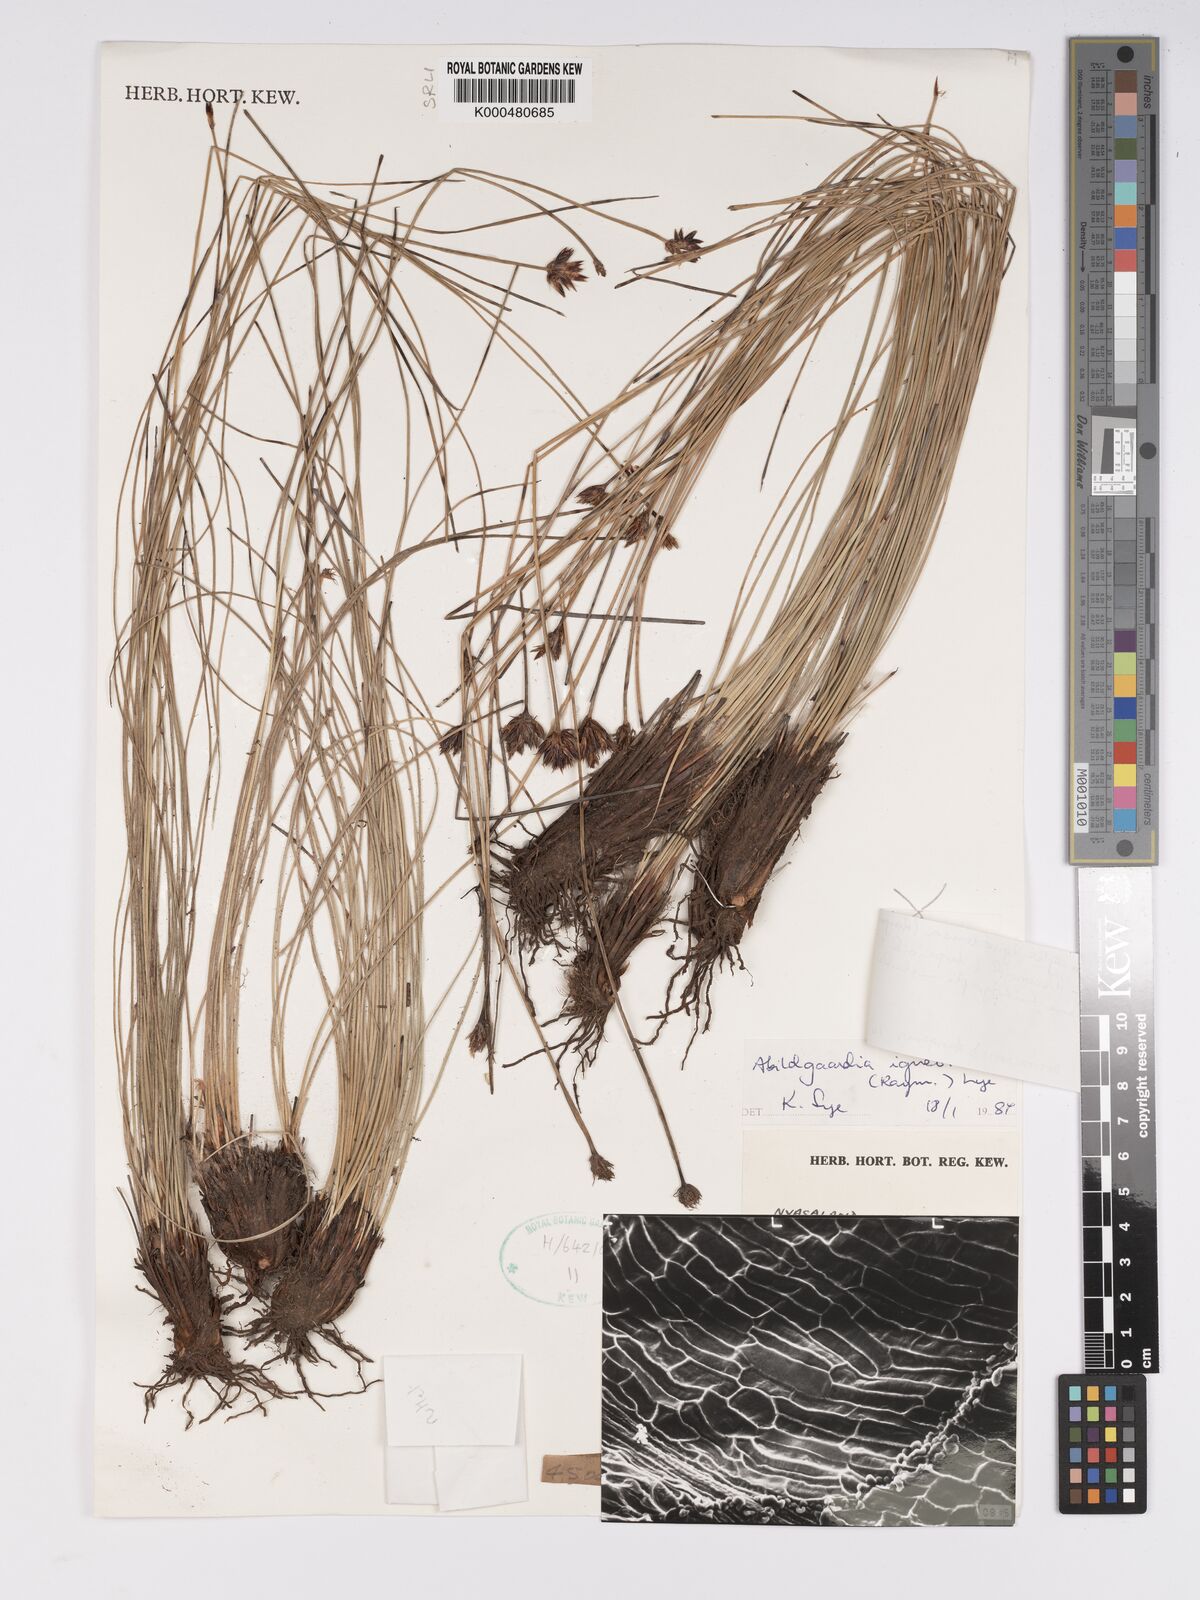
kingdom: Plantae
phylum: Tracheophyta
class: Liliopsida
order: Poales
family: Cyperaceae
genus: Bulbostylis
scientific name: Bulbostylis igneotonsa
